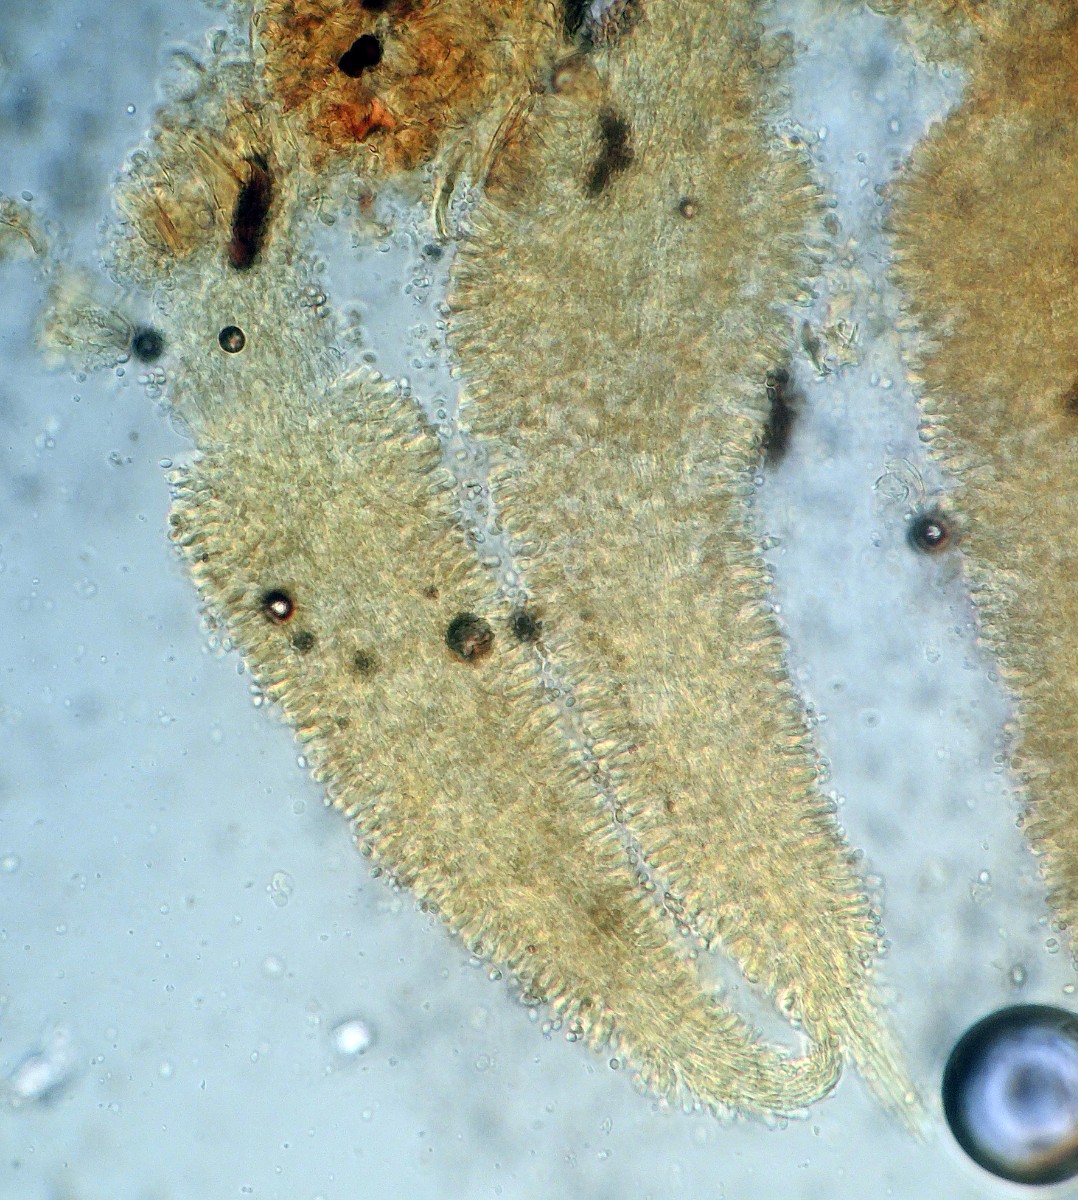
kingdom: Fungi
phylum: Basidiomycota
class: Agaricomycetes
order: Agaricales
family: Clavariaceae
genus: Mucronella
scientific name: Mucronella calva
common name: hvid hængepig
